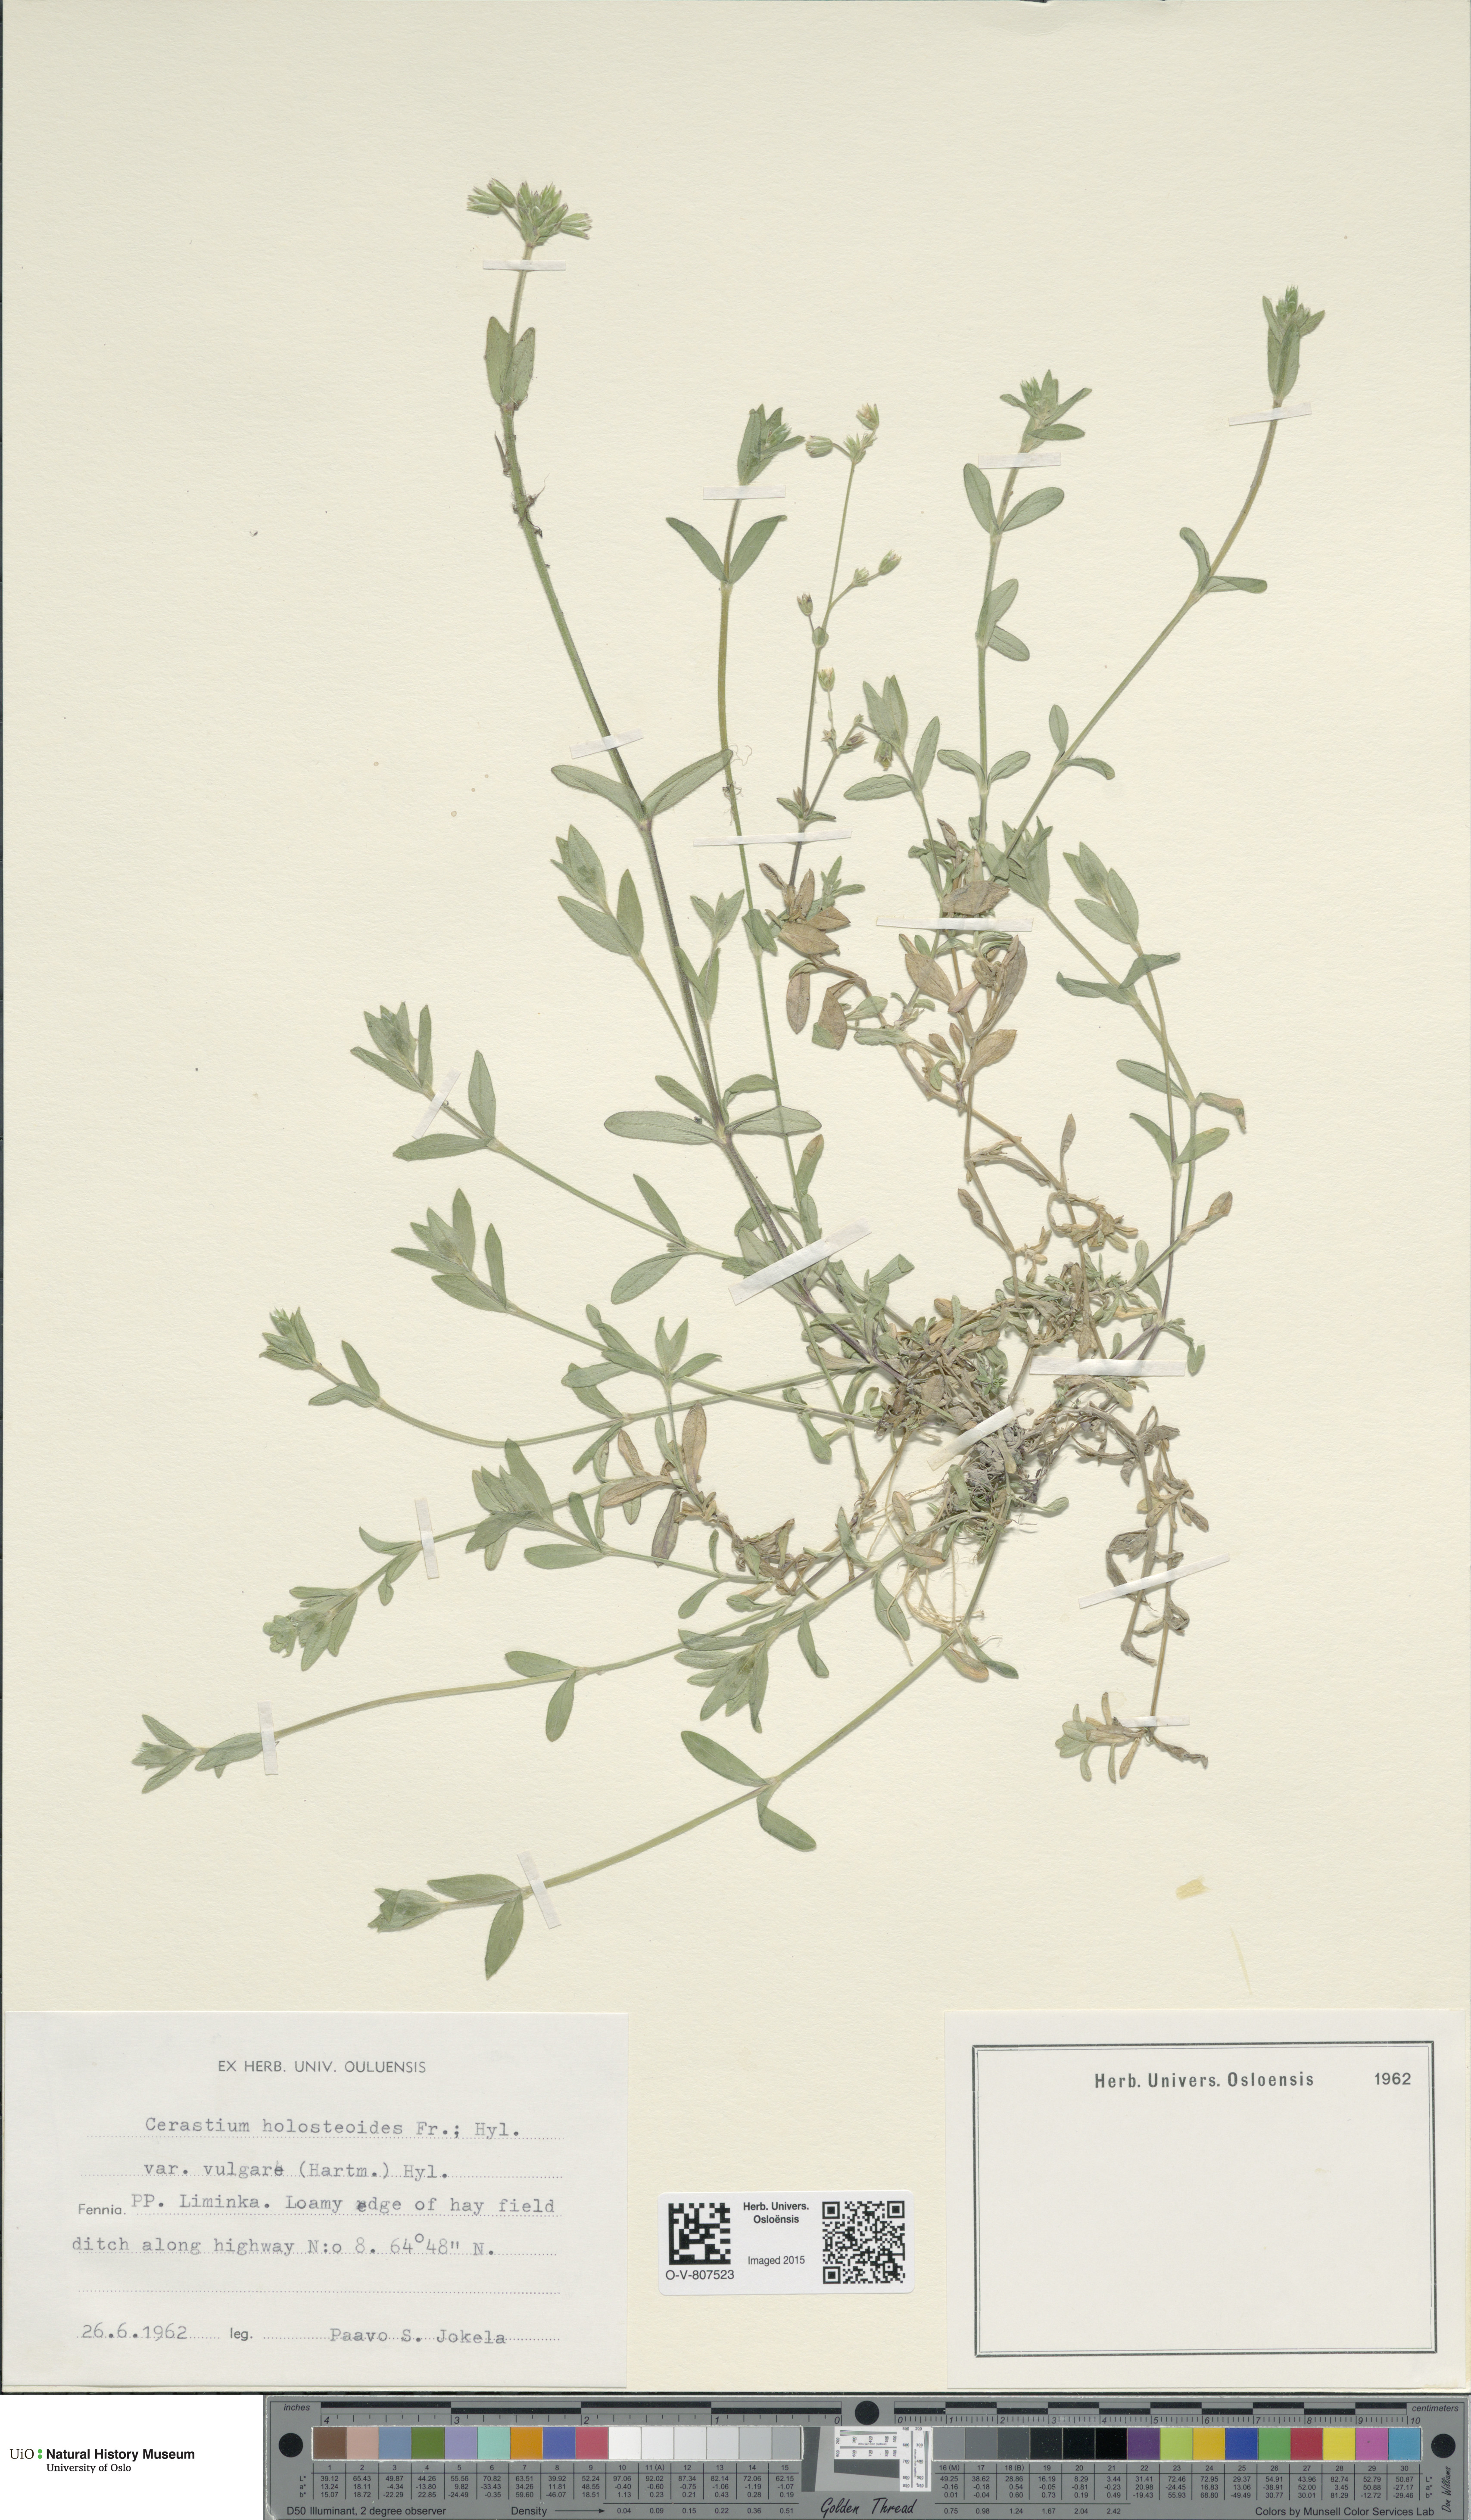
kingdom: Plantae
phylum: Tracheophyta
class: Magnoliopsida
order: Caryophyllales
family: Caryophyllaceae
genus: Cerastium
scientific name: Cerastium holosteoides
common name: Big chickweed
